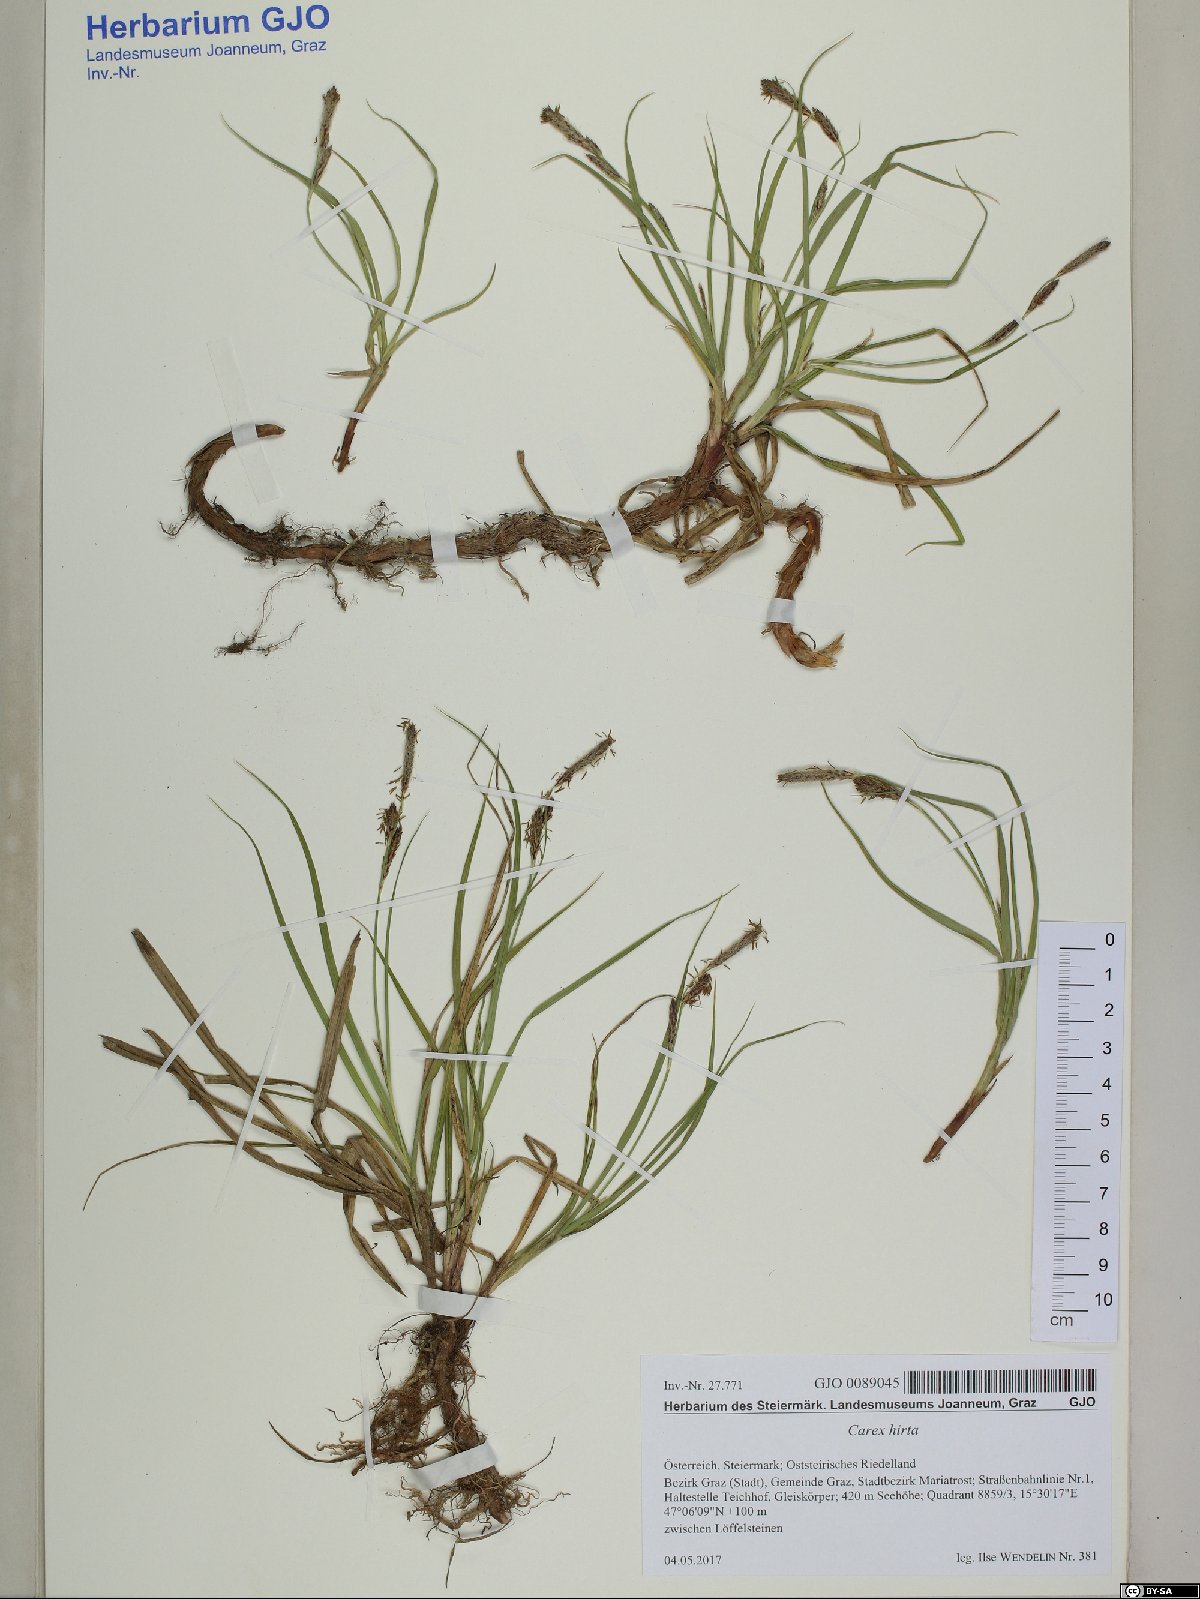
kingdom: Plantae
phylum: Tracheophyta
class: Liliopsida
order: Poales
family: Cyperaceae
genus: Carex
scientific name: Carex hirta
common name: Hairy sedge
